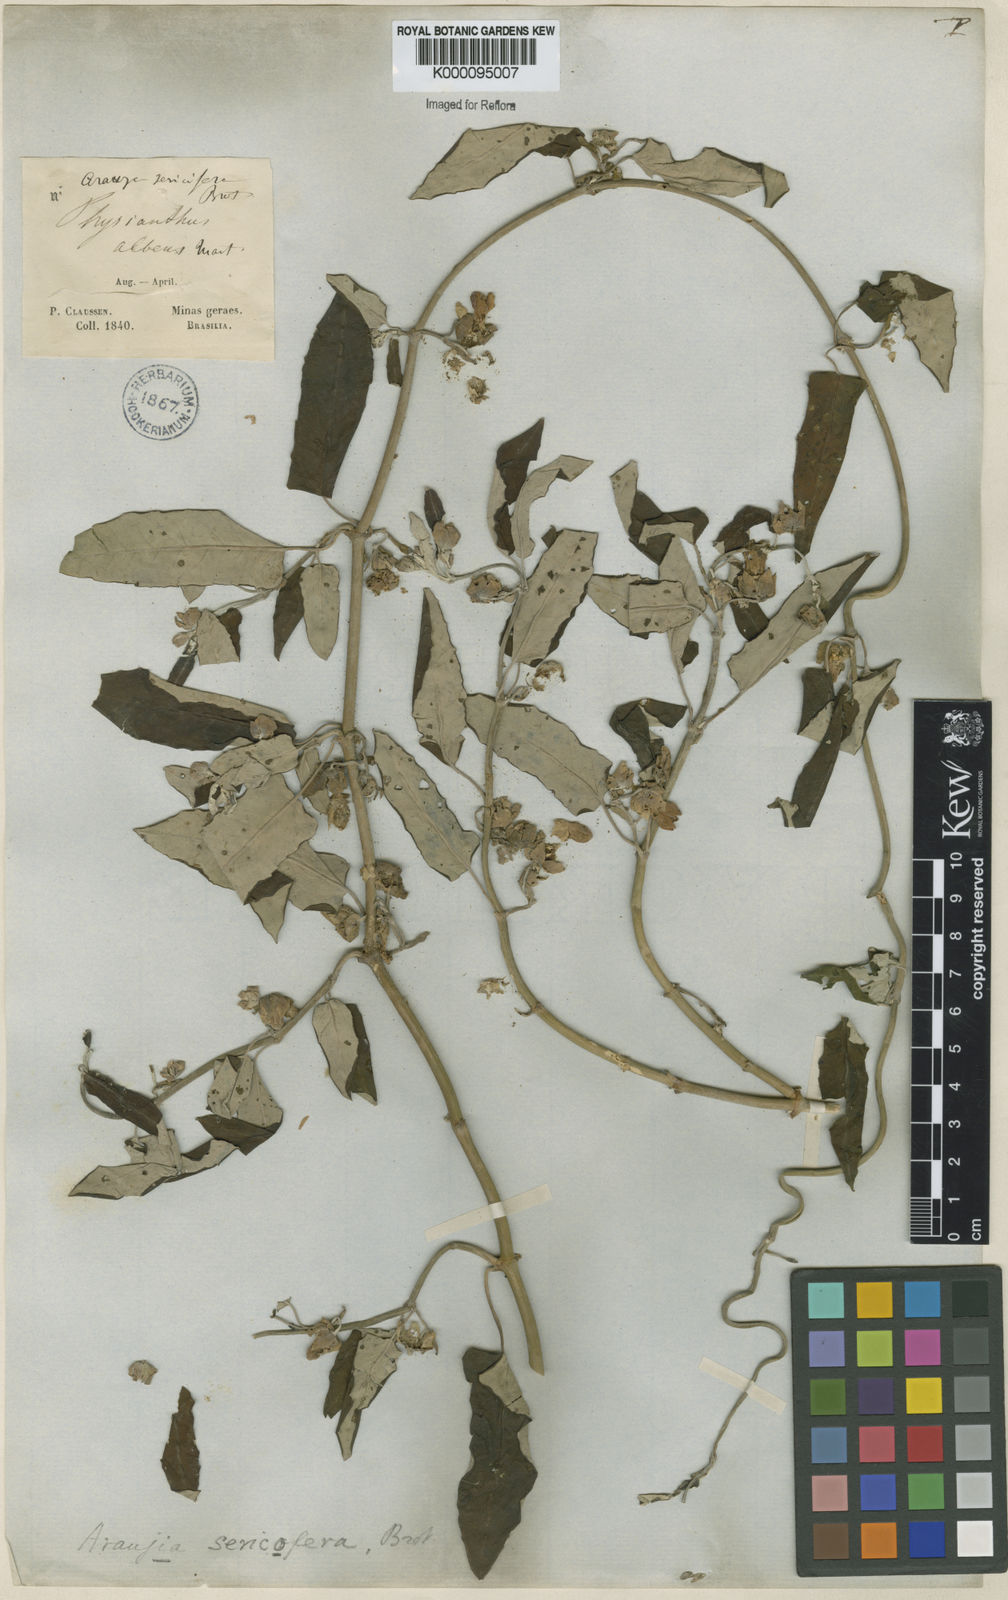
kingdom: Plantae
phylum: Tracheophyta
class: Magnoliopsida
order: Gentianales
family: Apocynaceae
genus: Araujia
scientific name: Araujia sericifera
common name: White bladderflower
